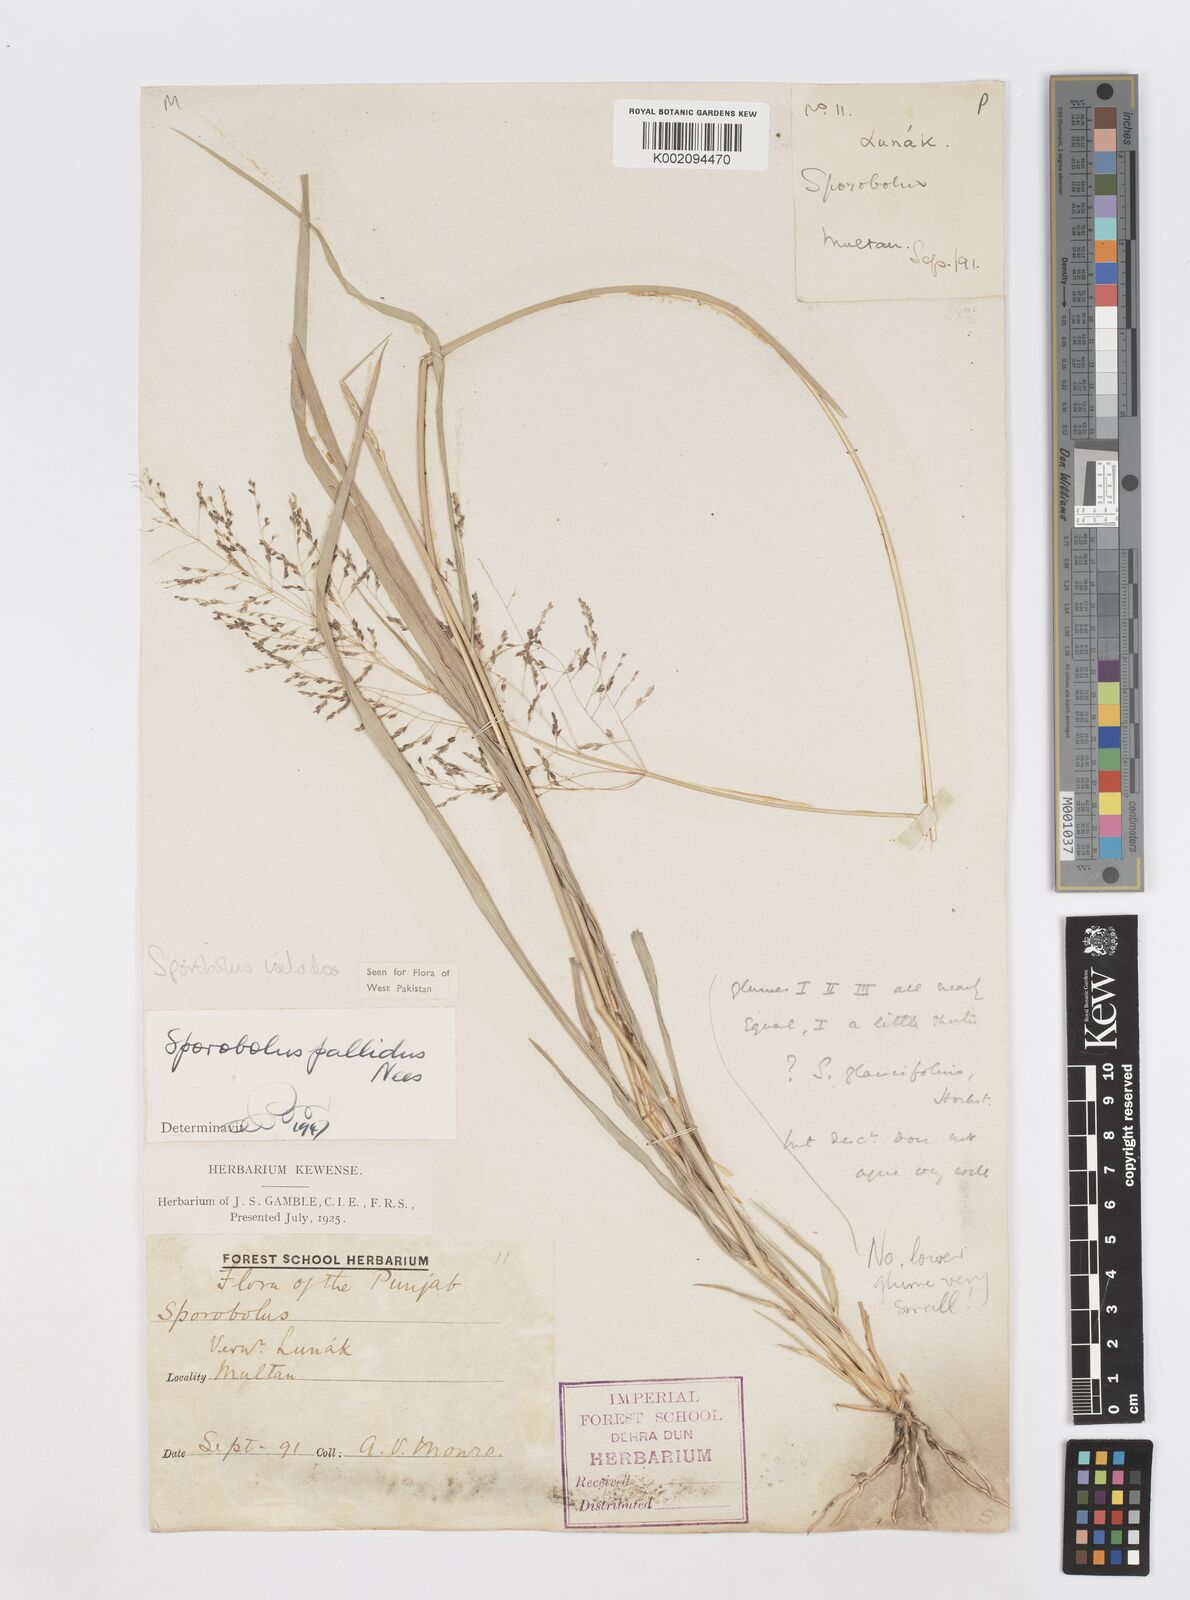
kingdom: Plantae
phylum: Tracheophyta
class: Liliopsida
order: Poales
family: Poaceae
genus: Sporobolus
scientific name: Sporobolus ioclados
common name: Pan dropseed
